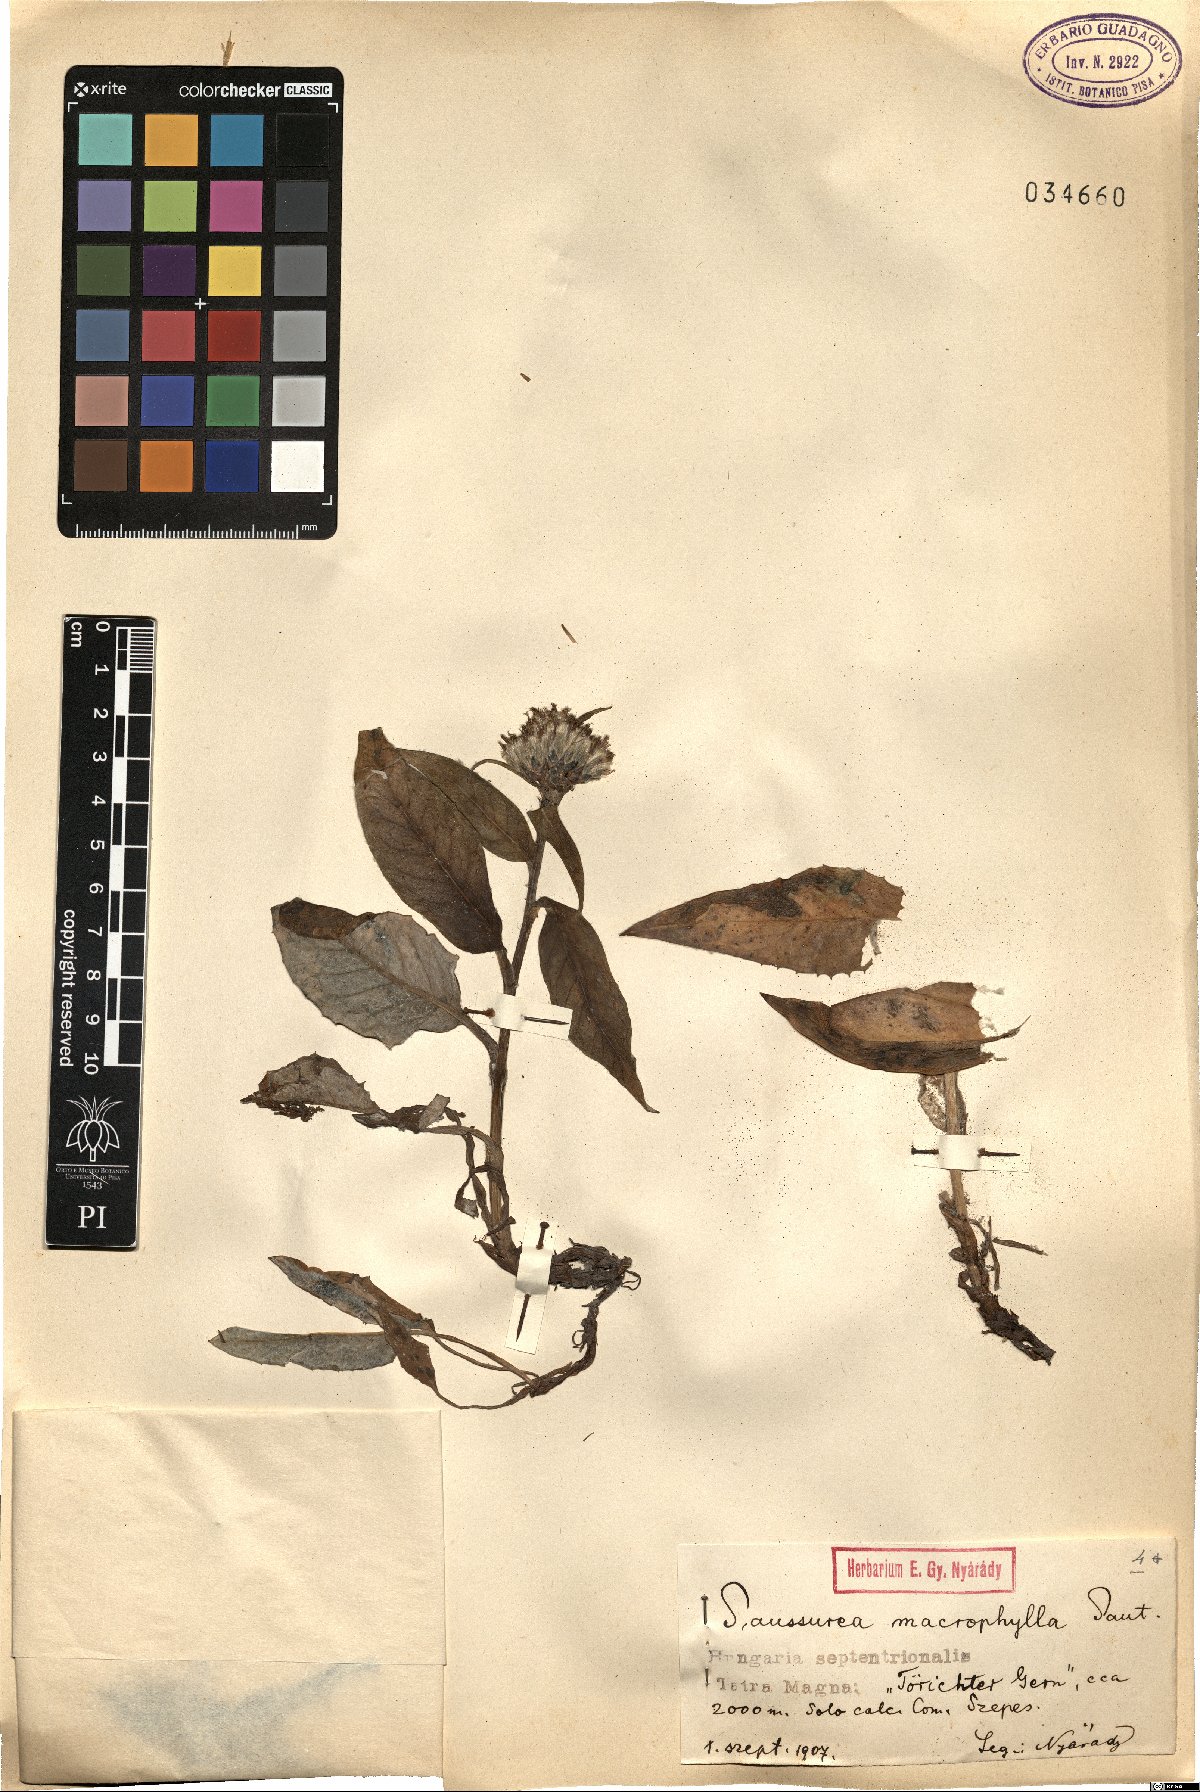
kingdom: Plantae
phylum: Tracheophyta
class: Magnoliopsida
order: Asterales
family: Asteraceae
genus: Saussurea
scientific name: Saussurea alpina
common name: Alpine saw-wort
